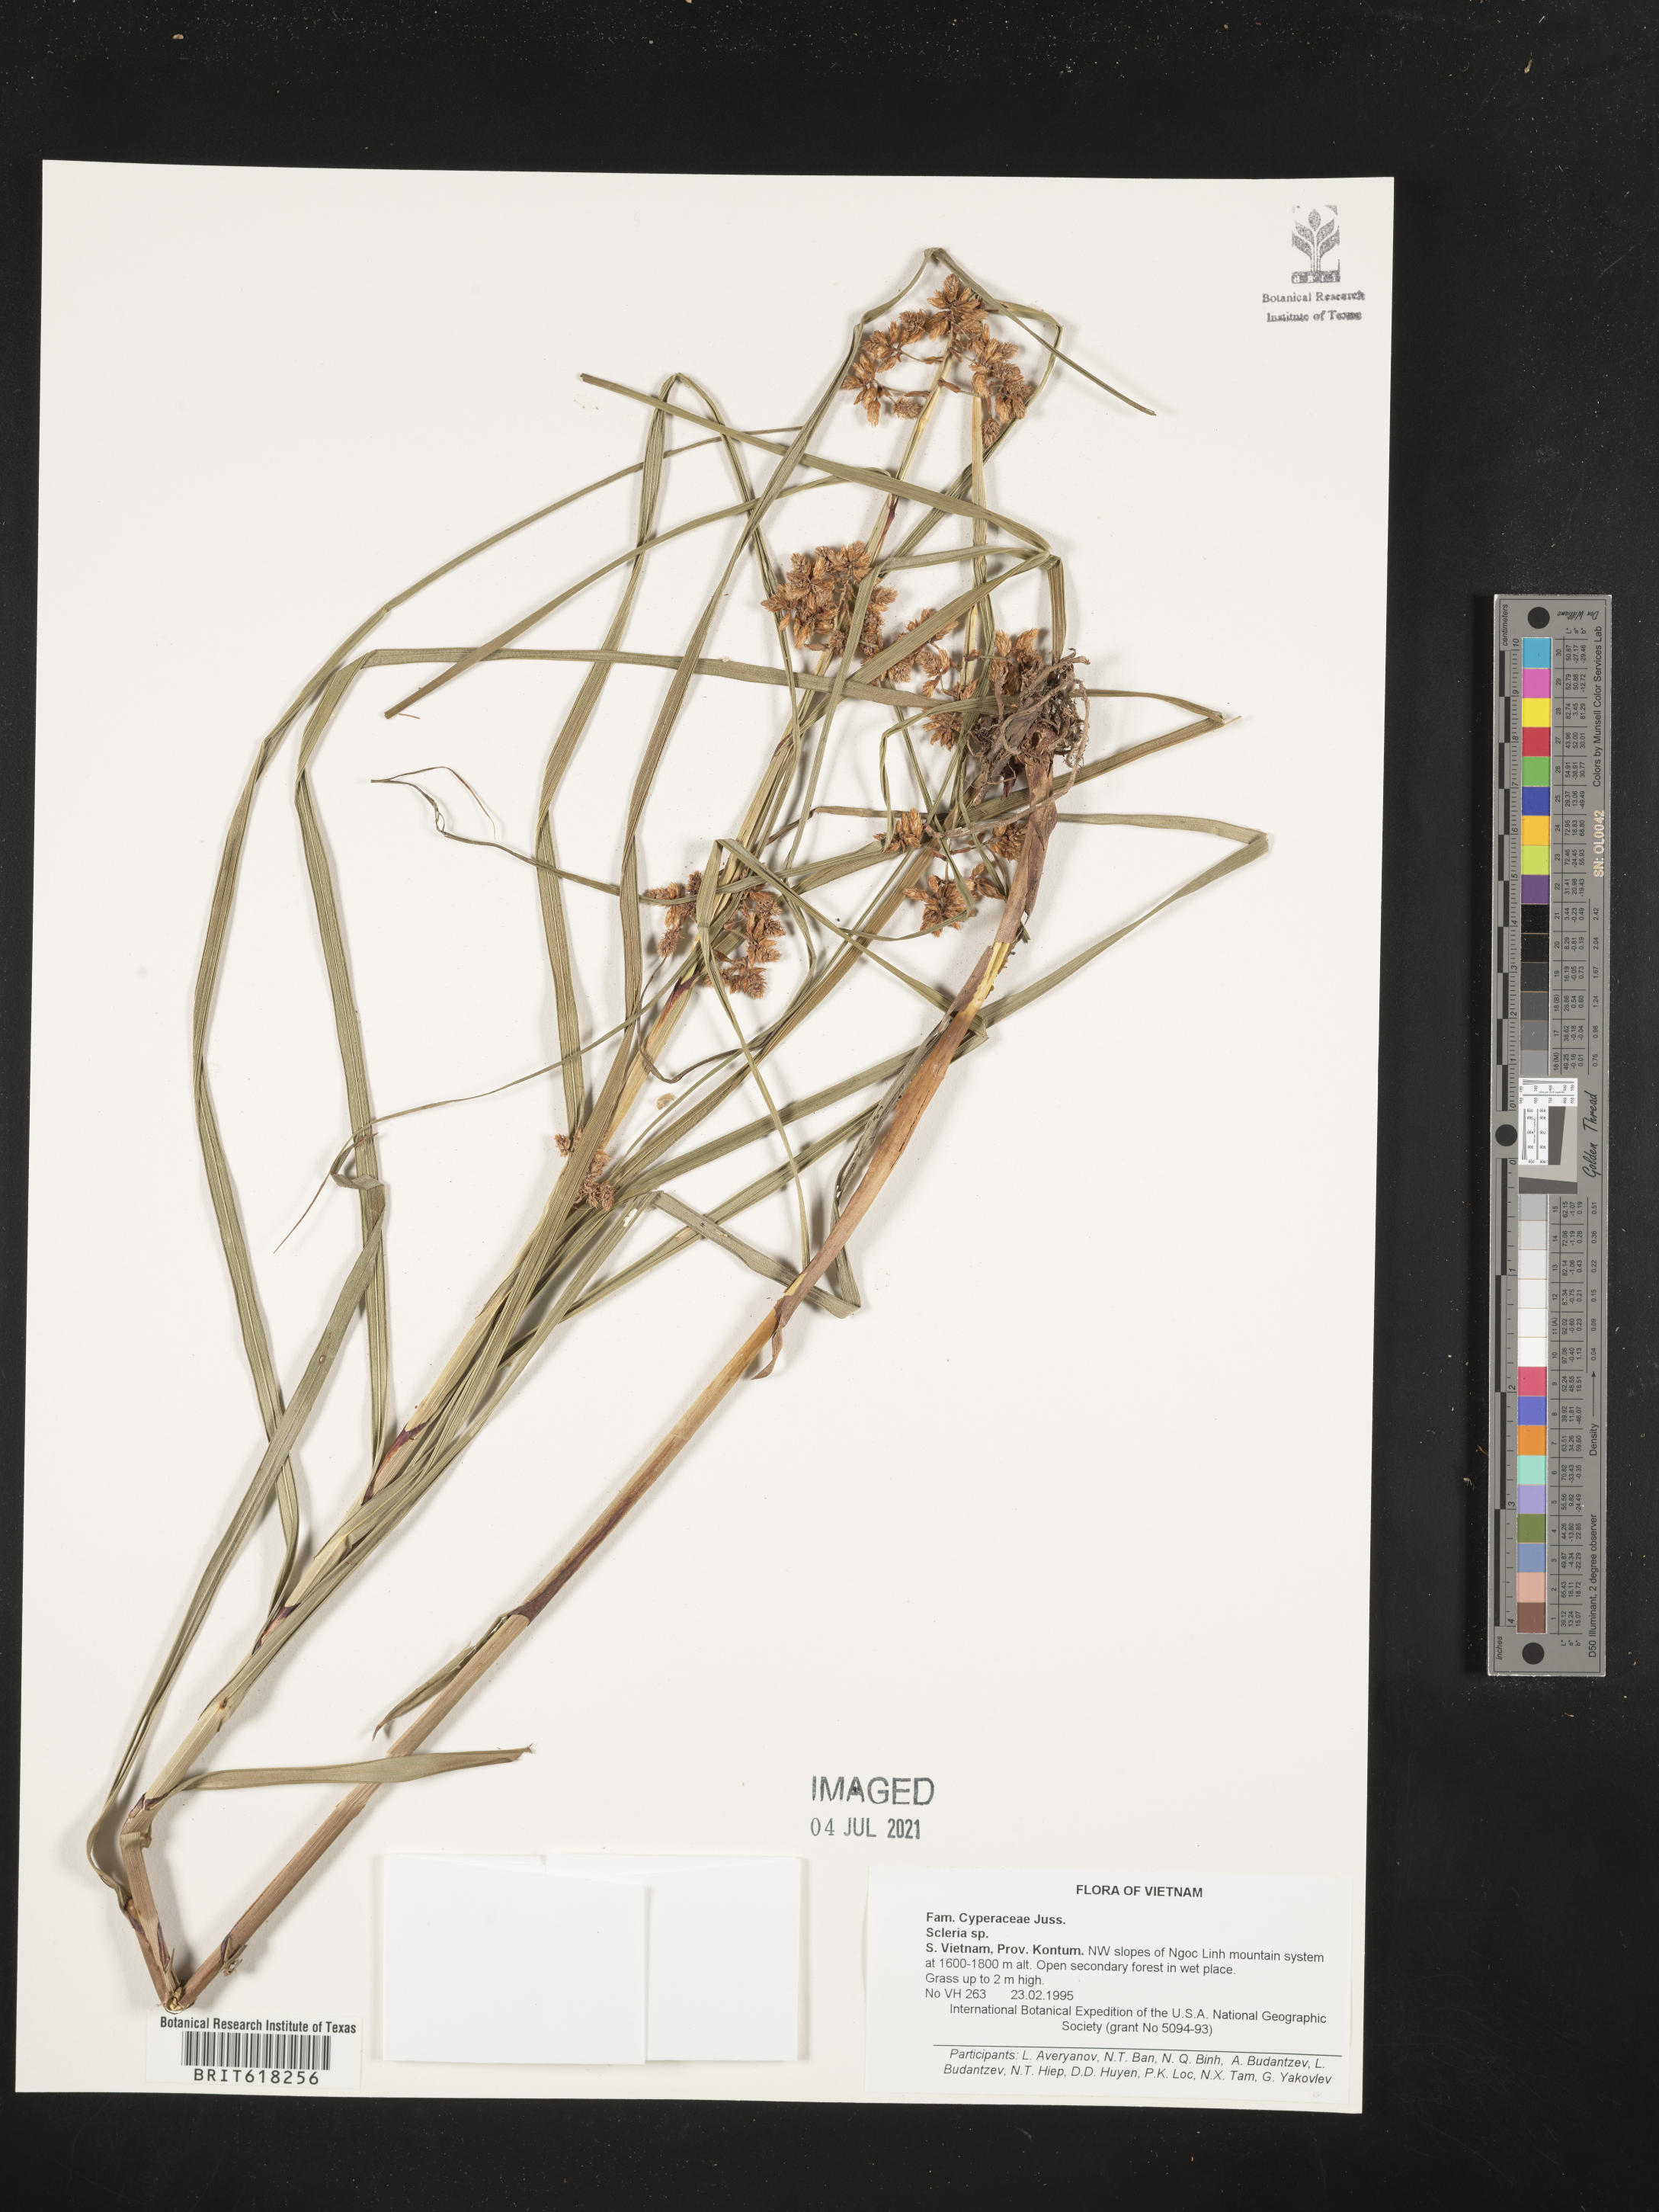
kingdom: Plantae
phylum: Tracheophyta
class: Liliopsida
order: Poales
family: Cyperaceae
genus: Scleria
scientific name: Scleria
